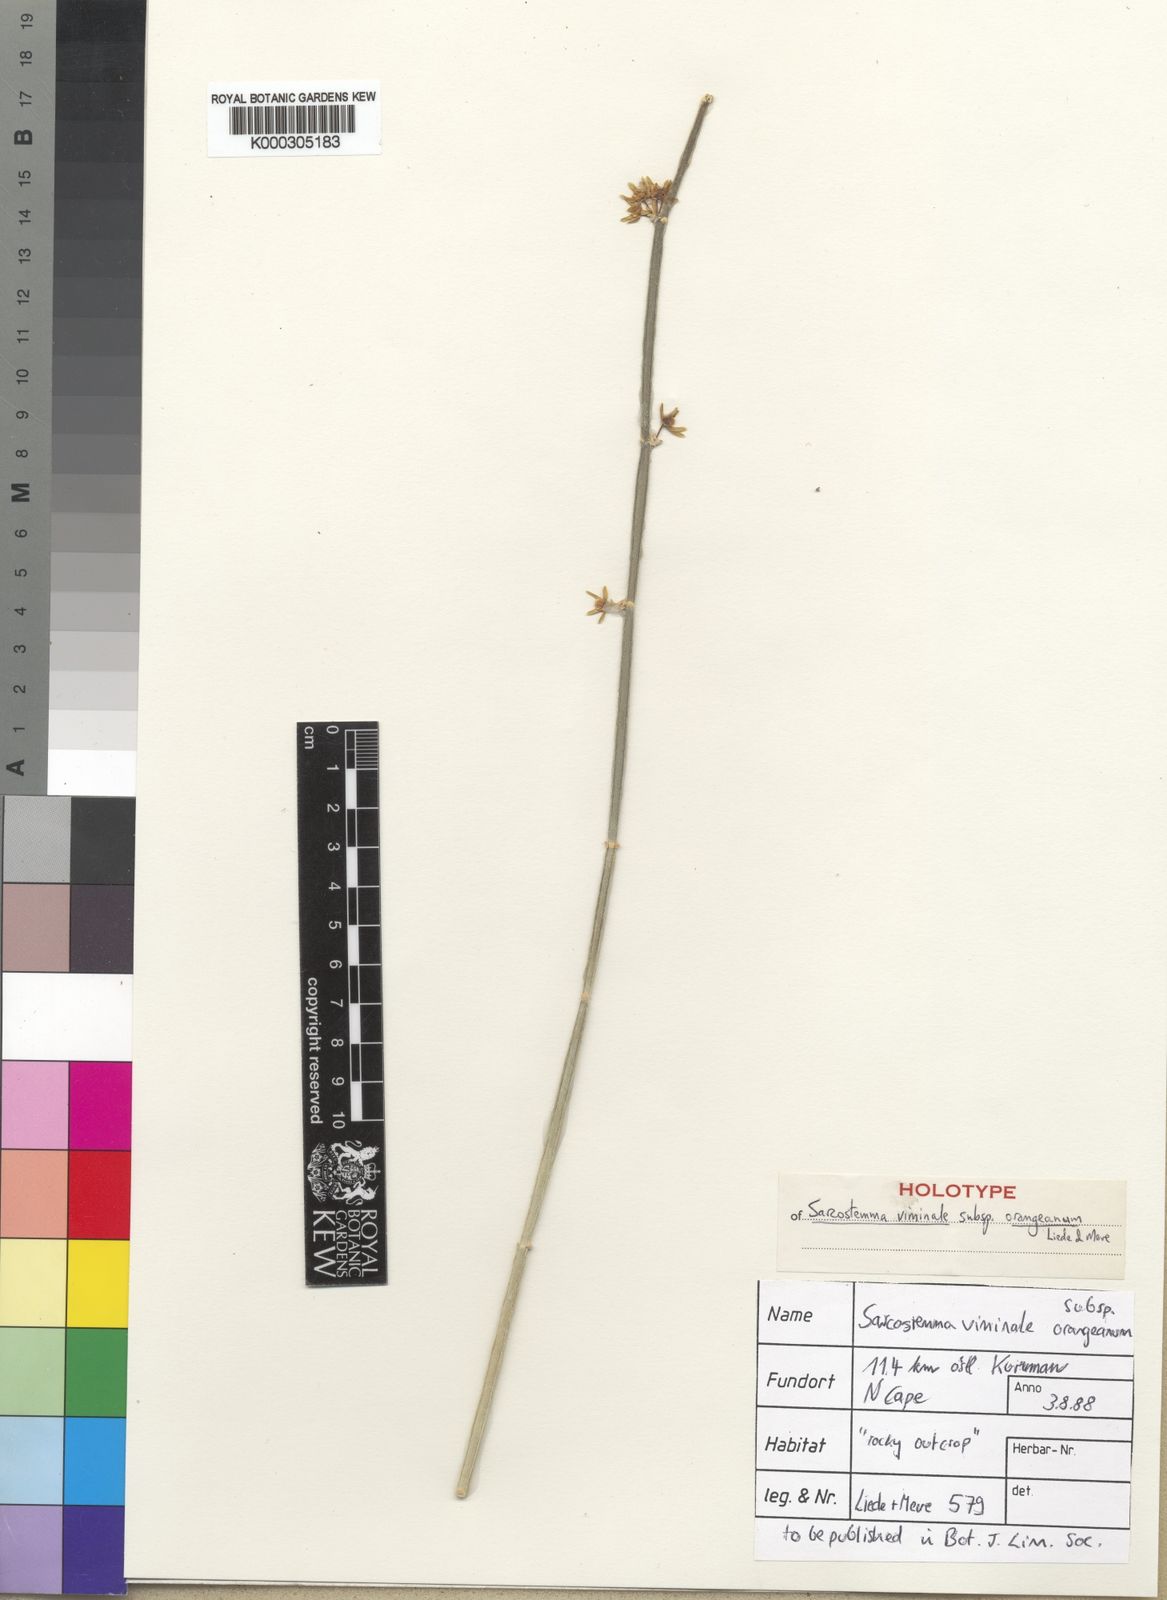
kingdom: Plantae
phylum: Tracheophyta
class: Magnoliopsida
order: Gentianales
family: Apocynaceae
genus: Cynanchum
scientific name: Cynanchum viminale
